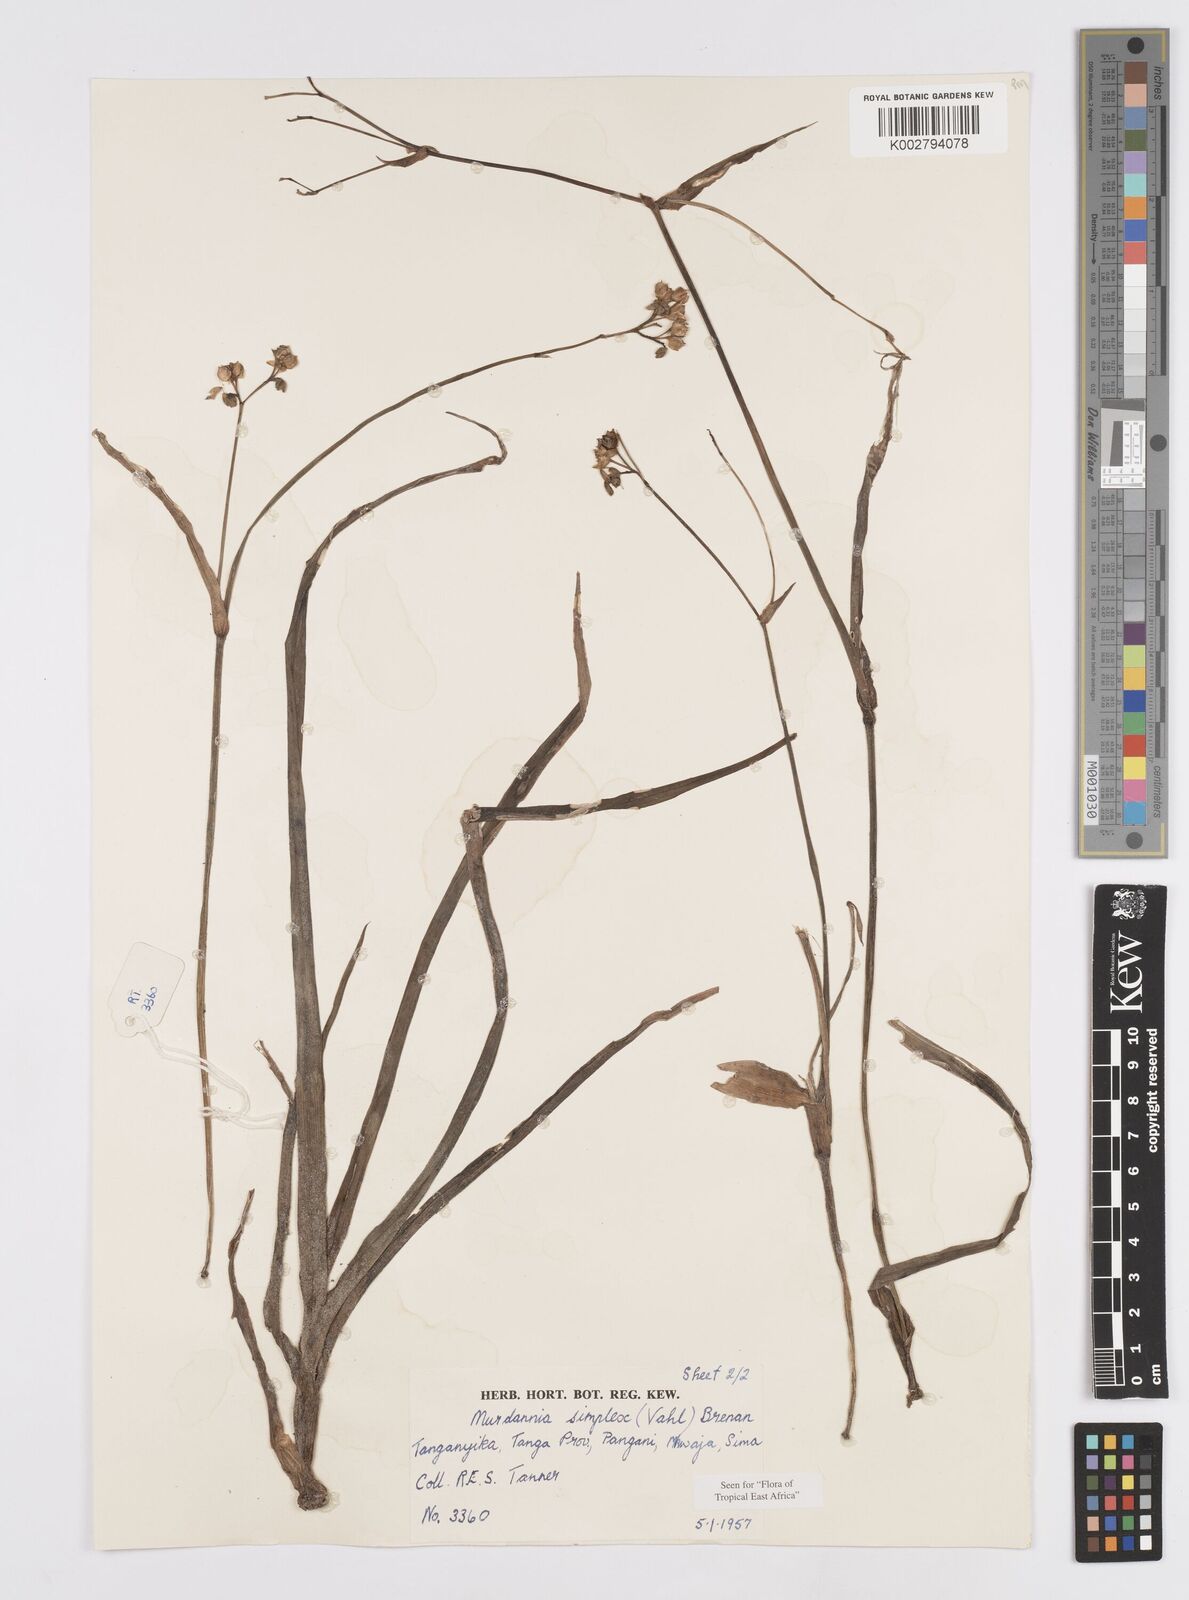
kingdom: Plantae
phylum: Tracheophyta
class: Liliopsida
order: Commelinales
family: Commelinaceae
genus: Murdannia
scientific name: Murdannia simplex
